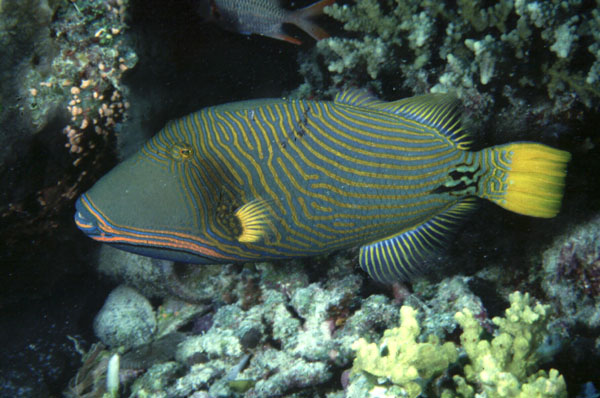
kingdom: Animalia
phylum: Chordata
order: Tetraodontiformes
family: Balistidae
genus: Balistapus
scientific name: Balistapus undulatus
